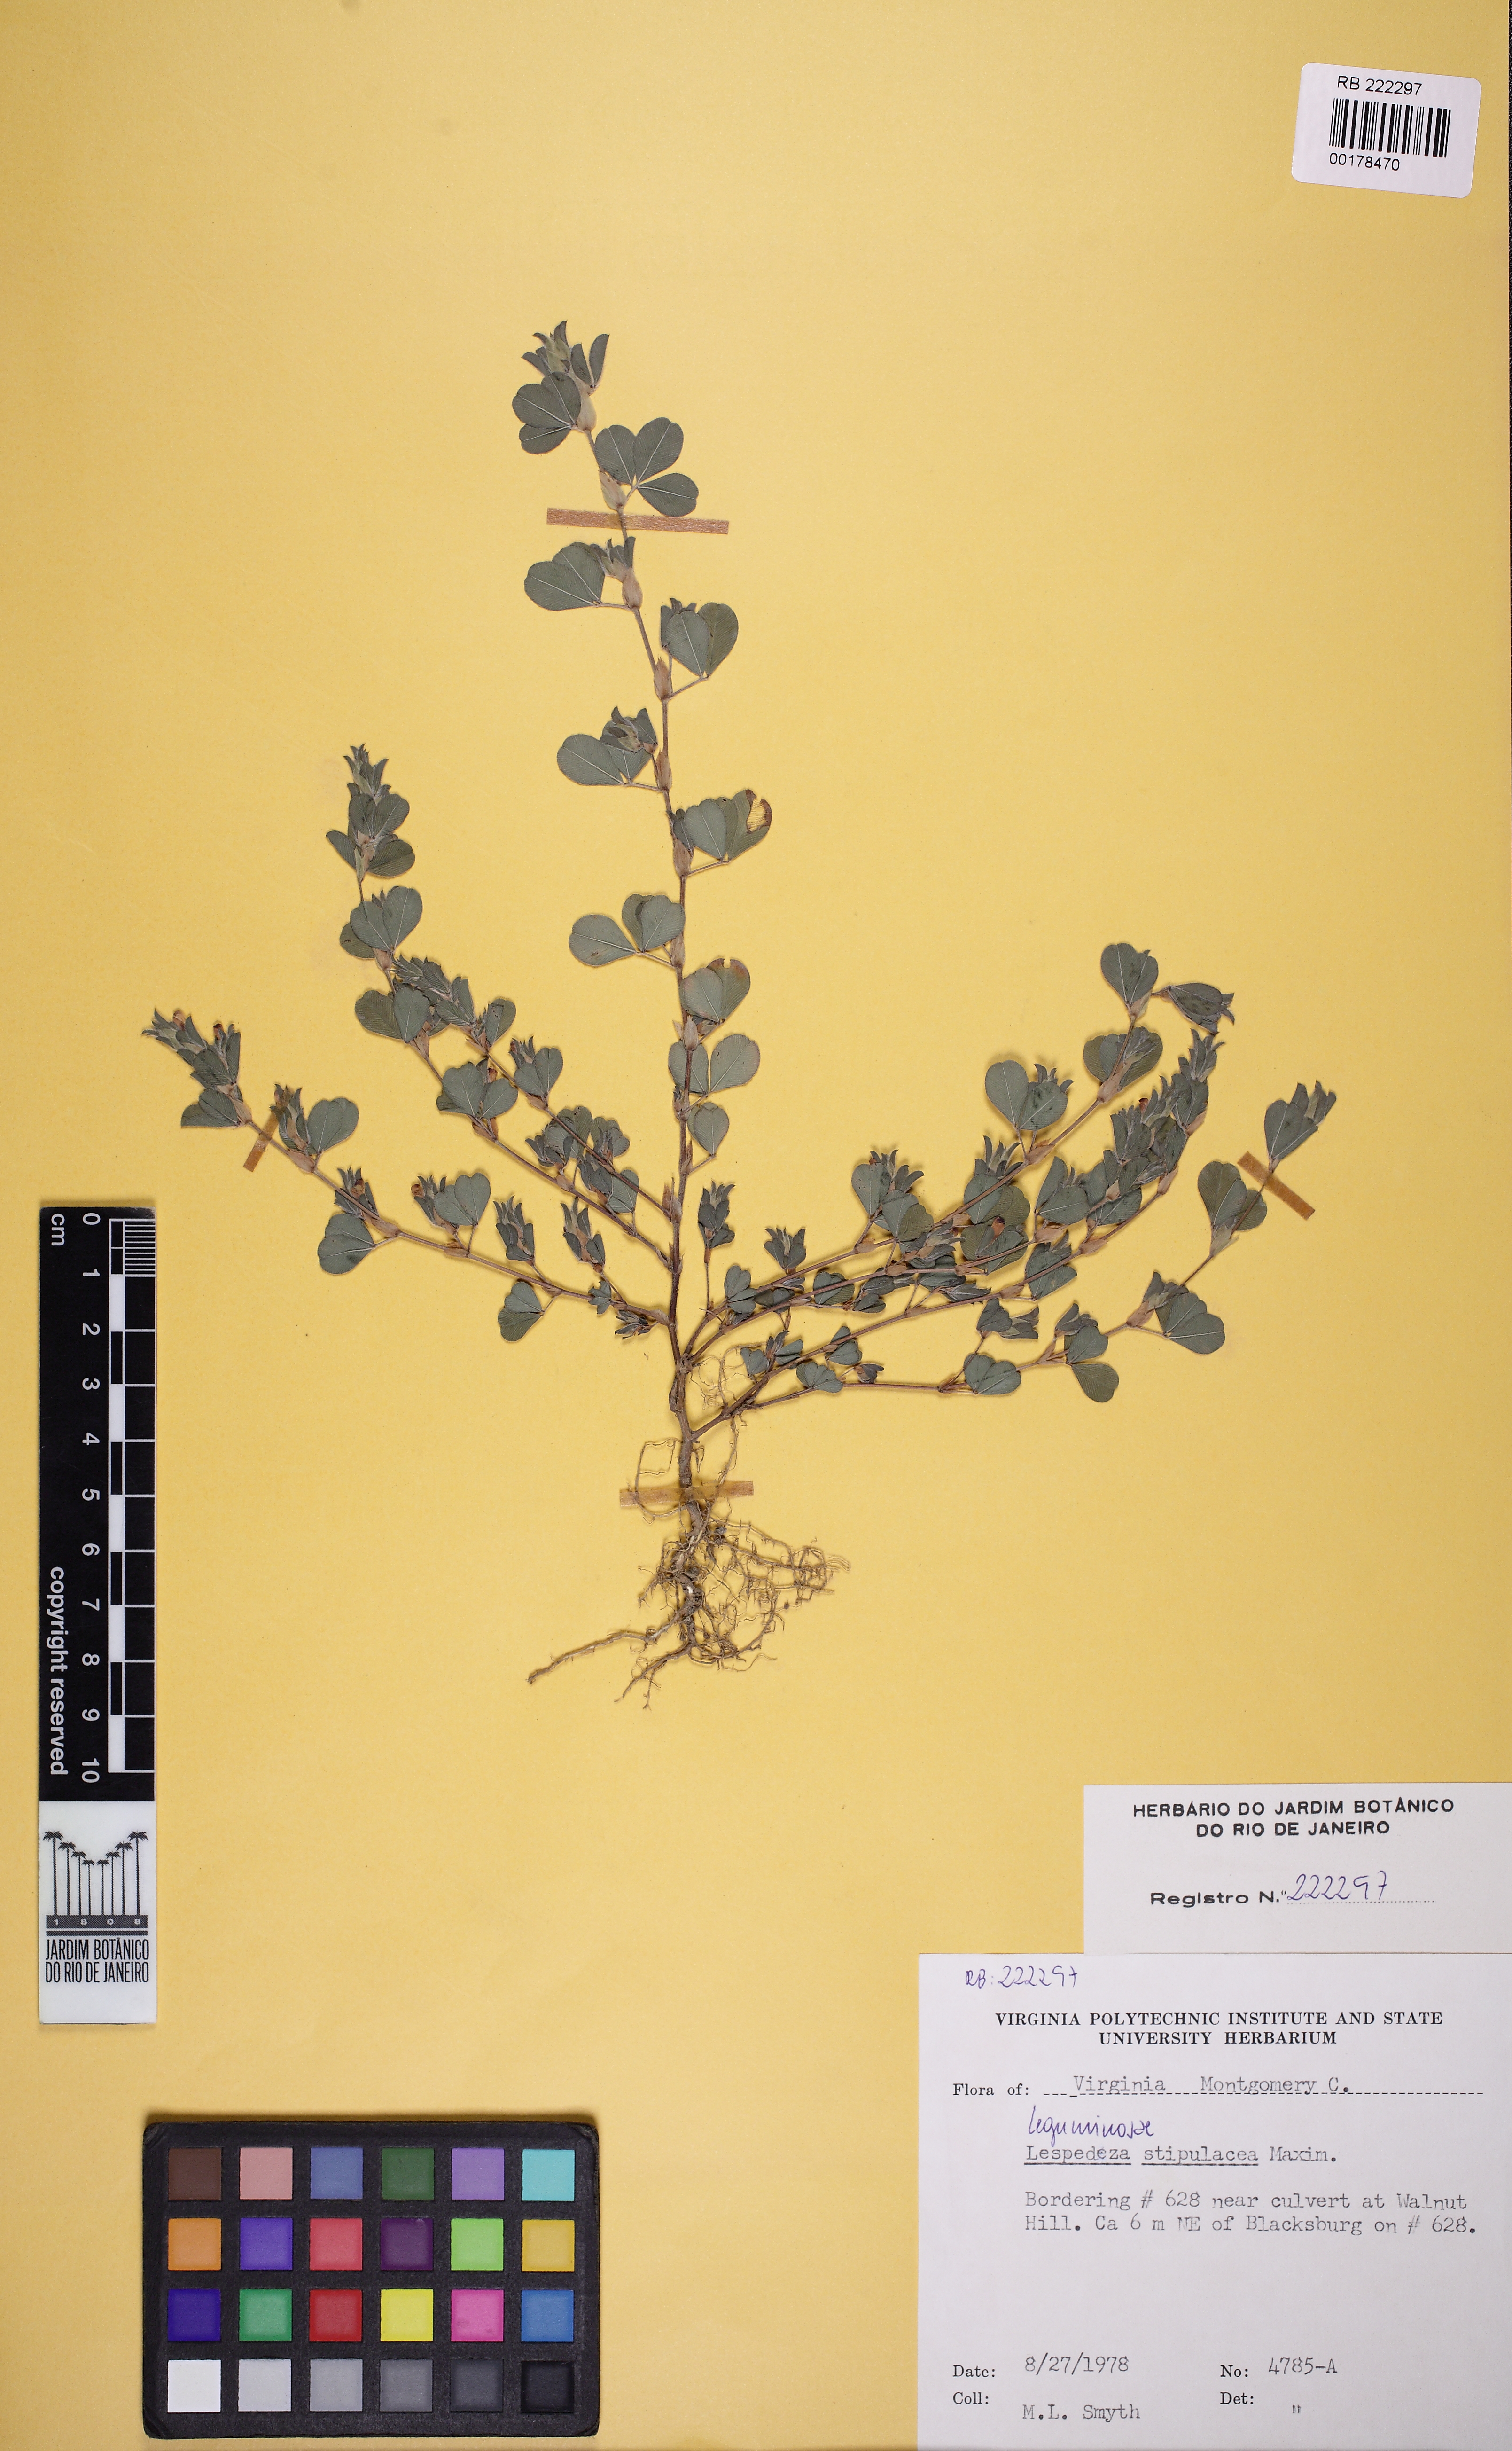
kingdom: Plantae
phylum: Tracheophyta
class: Magnoliopsida
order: Fabales
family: Fabaceae
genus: Kummerowia
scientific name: Kummerowia stipulacea
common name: Korean clover
